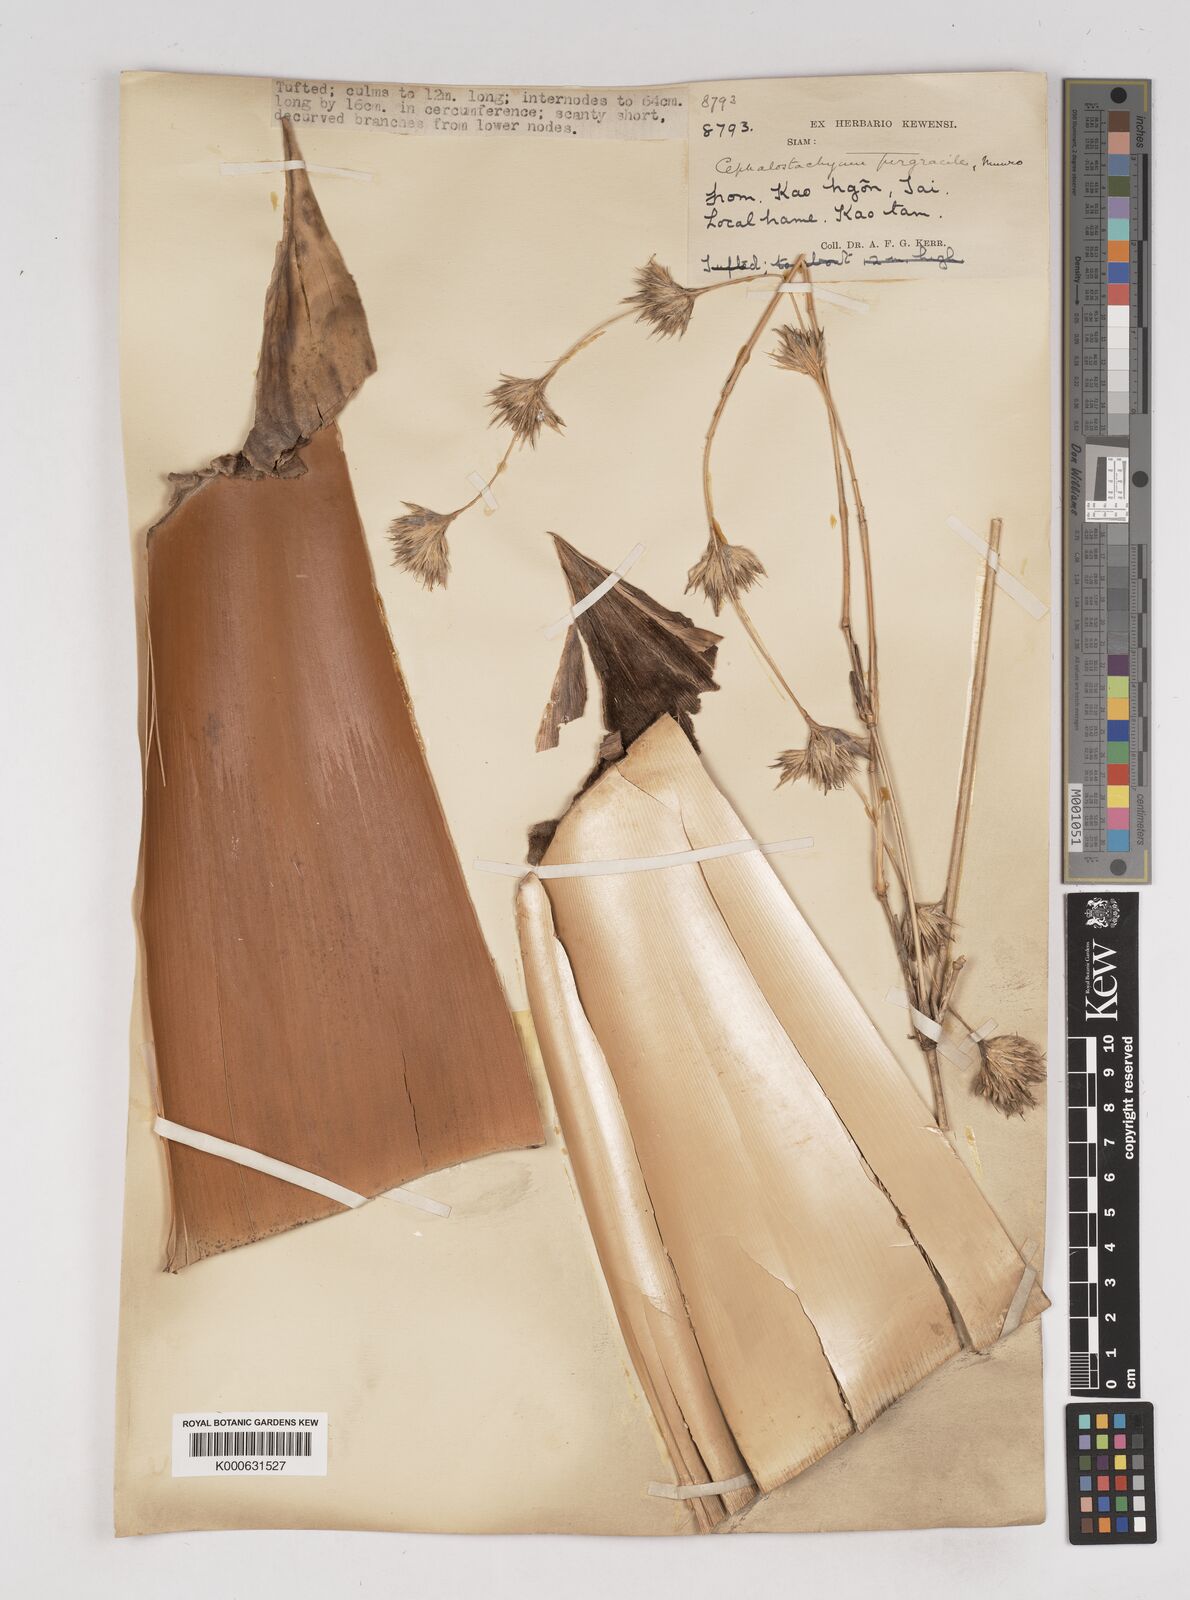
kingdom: Plantae
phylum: Tracheophyta
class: Liliopsida
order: Poales
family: Poaceae
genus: Schizostachyum
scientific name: Schizostachyum pergracile
